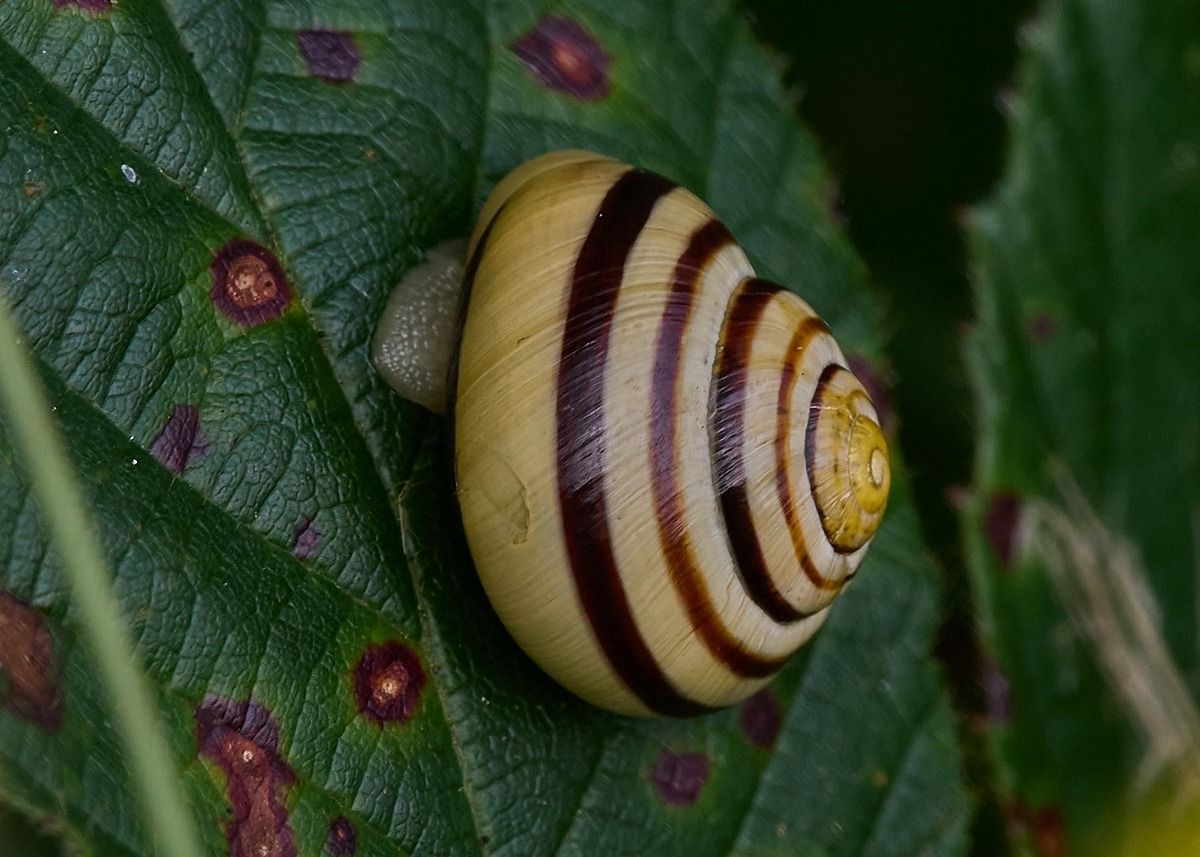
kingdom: Animalia
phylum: Mollusca
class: Gastropoda
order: Stylommatophora
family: Helicidae
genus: Cepaea
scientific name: Cepaea hortensis
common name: Havesnegl
